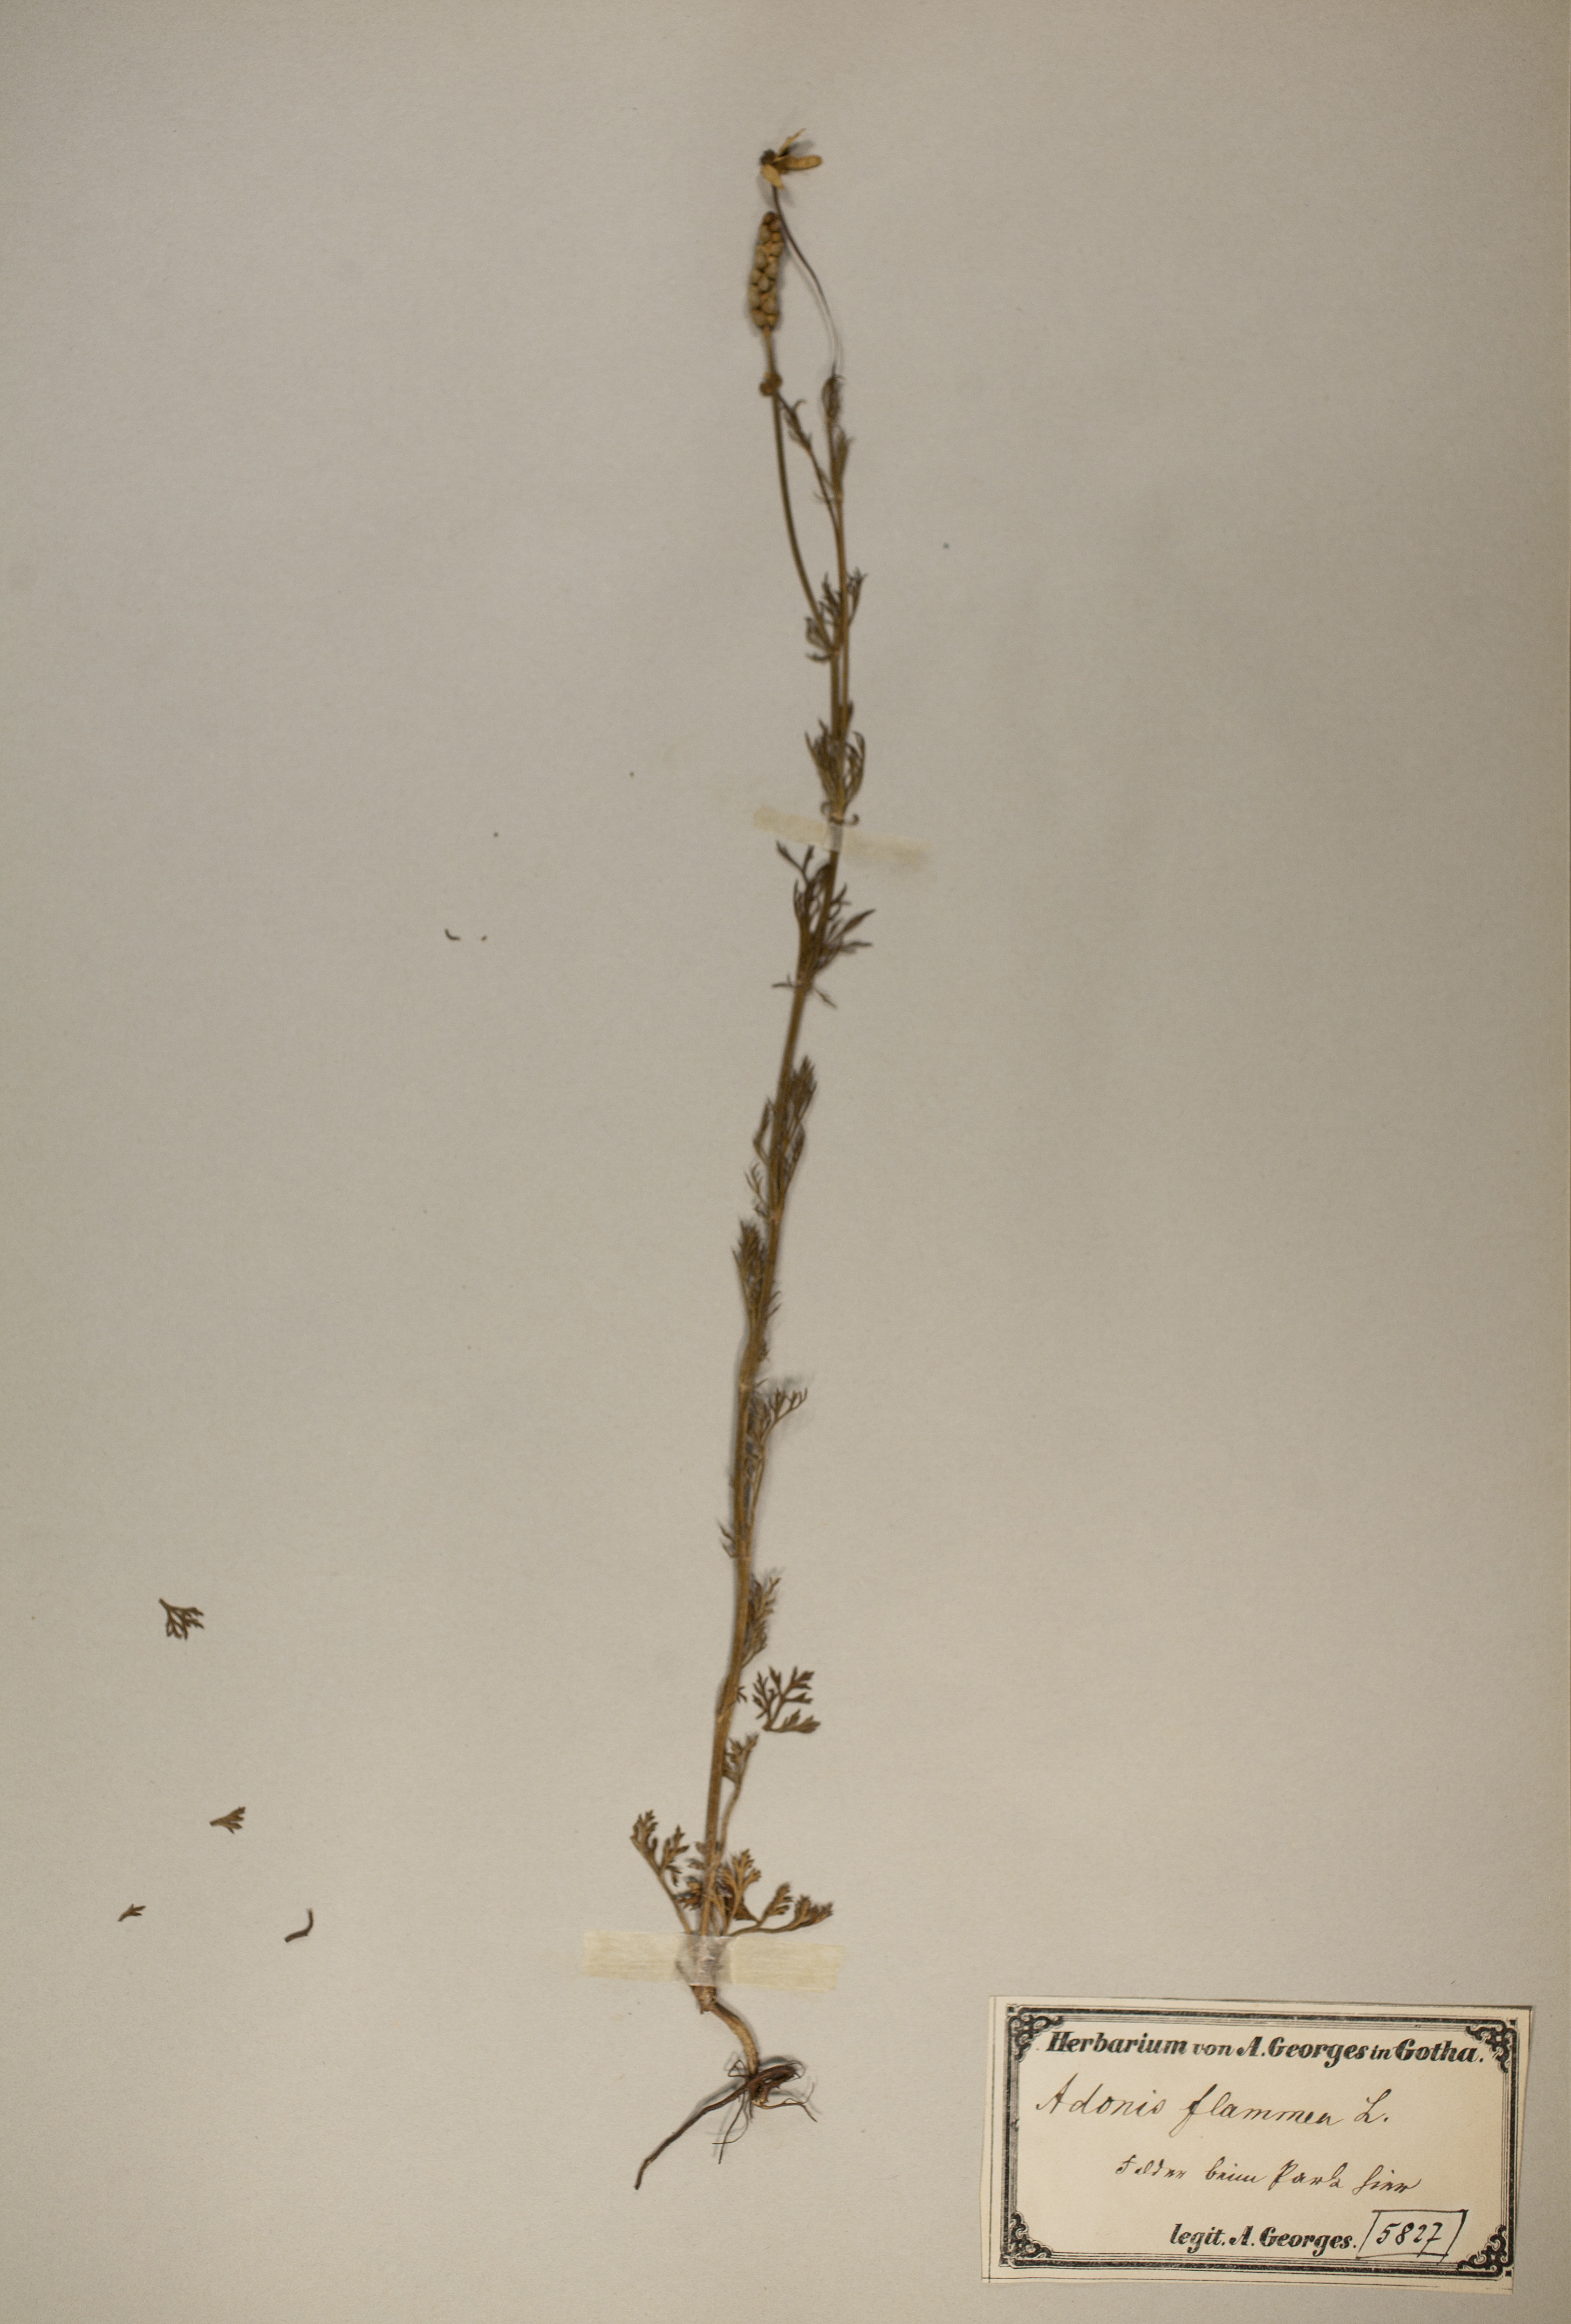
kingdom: Plantae
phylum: Tracheophyta
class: Magnoliopsida
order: Ranunculales
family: Ranunculaceae
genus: Adonis
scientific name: Adonis flammea
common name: Large pheasant's-eye
